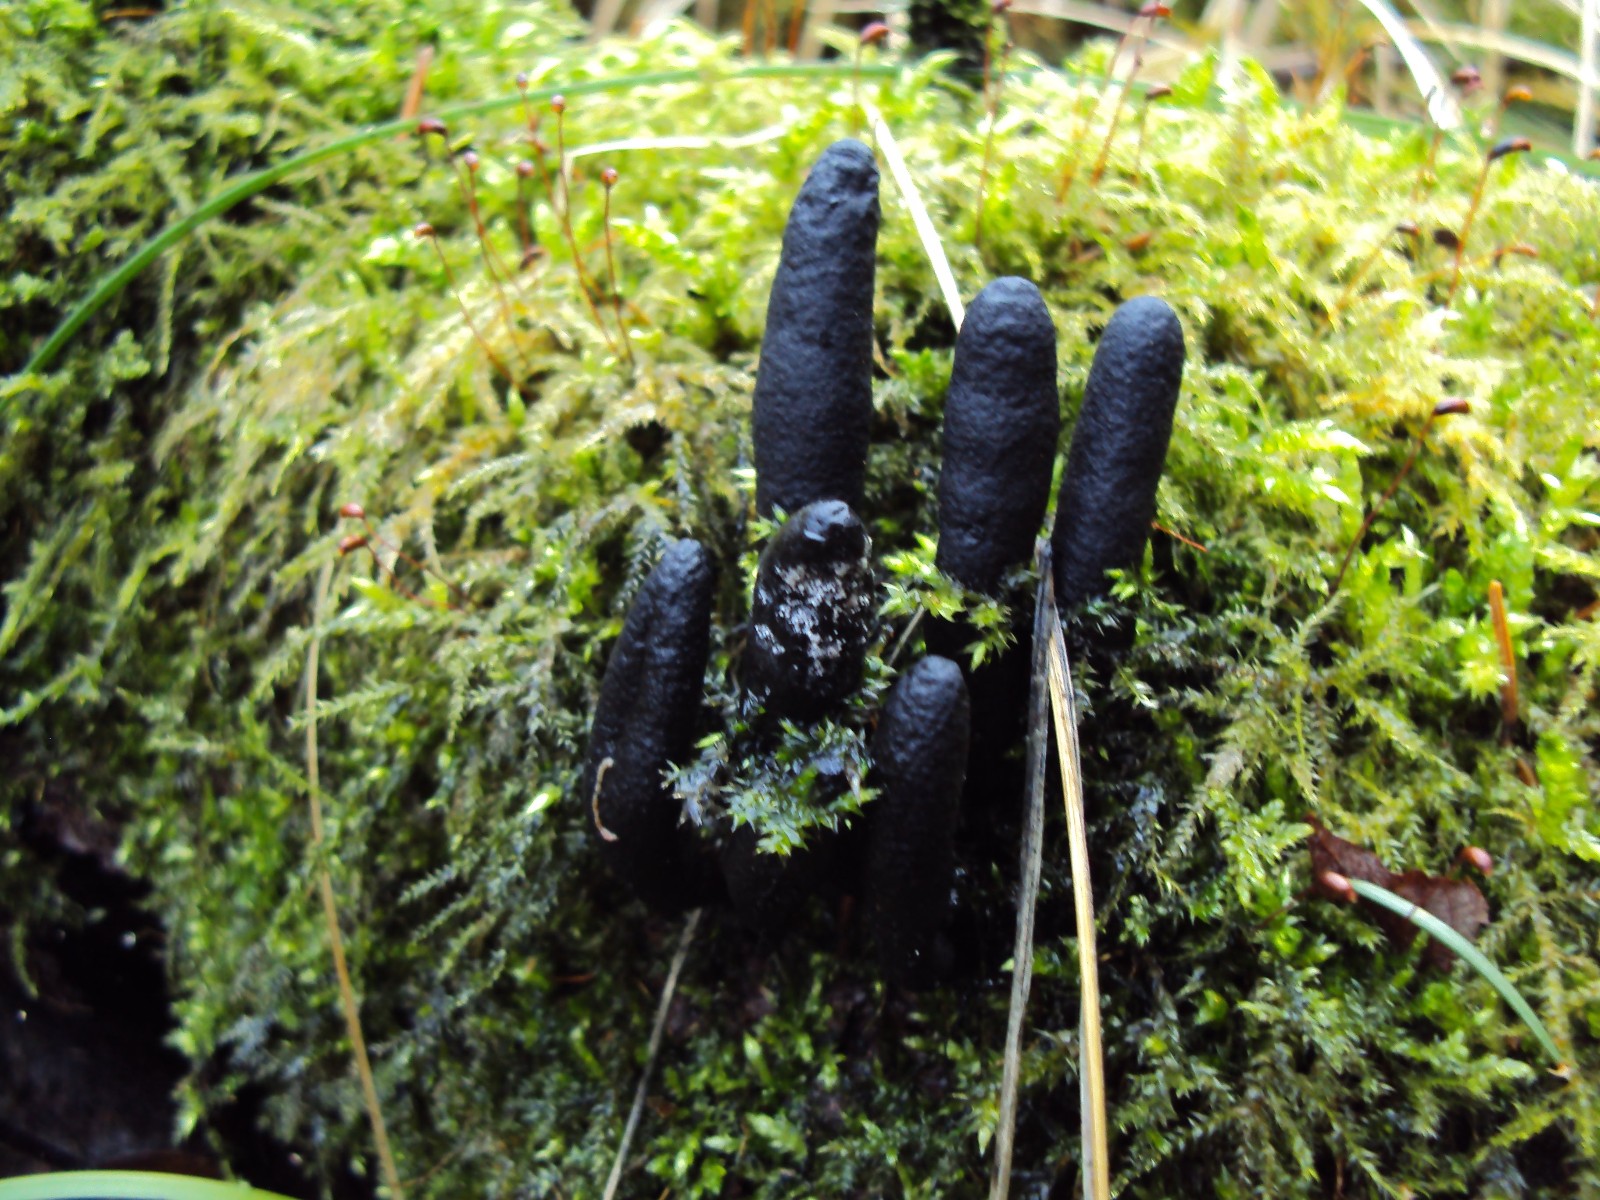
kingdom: Fungi
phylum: Ascomycota
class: Sordariomycetes
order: Xylariales
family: Xylariaceae
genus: Xylaria
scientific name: Xylaria longipes
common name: slank stødsvamp
